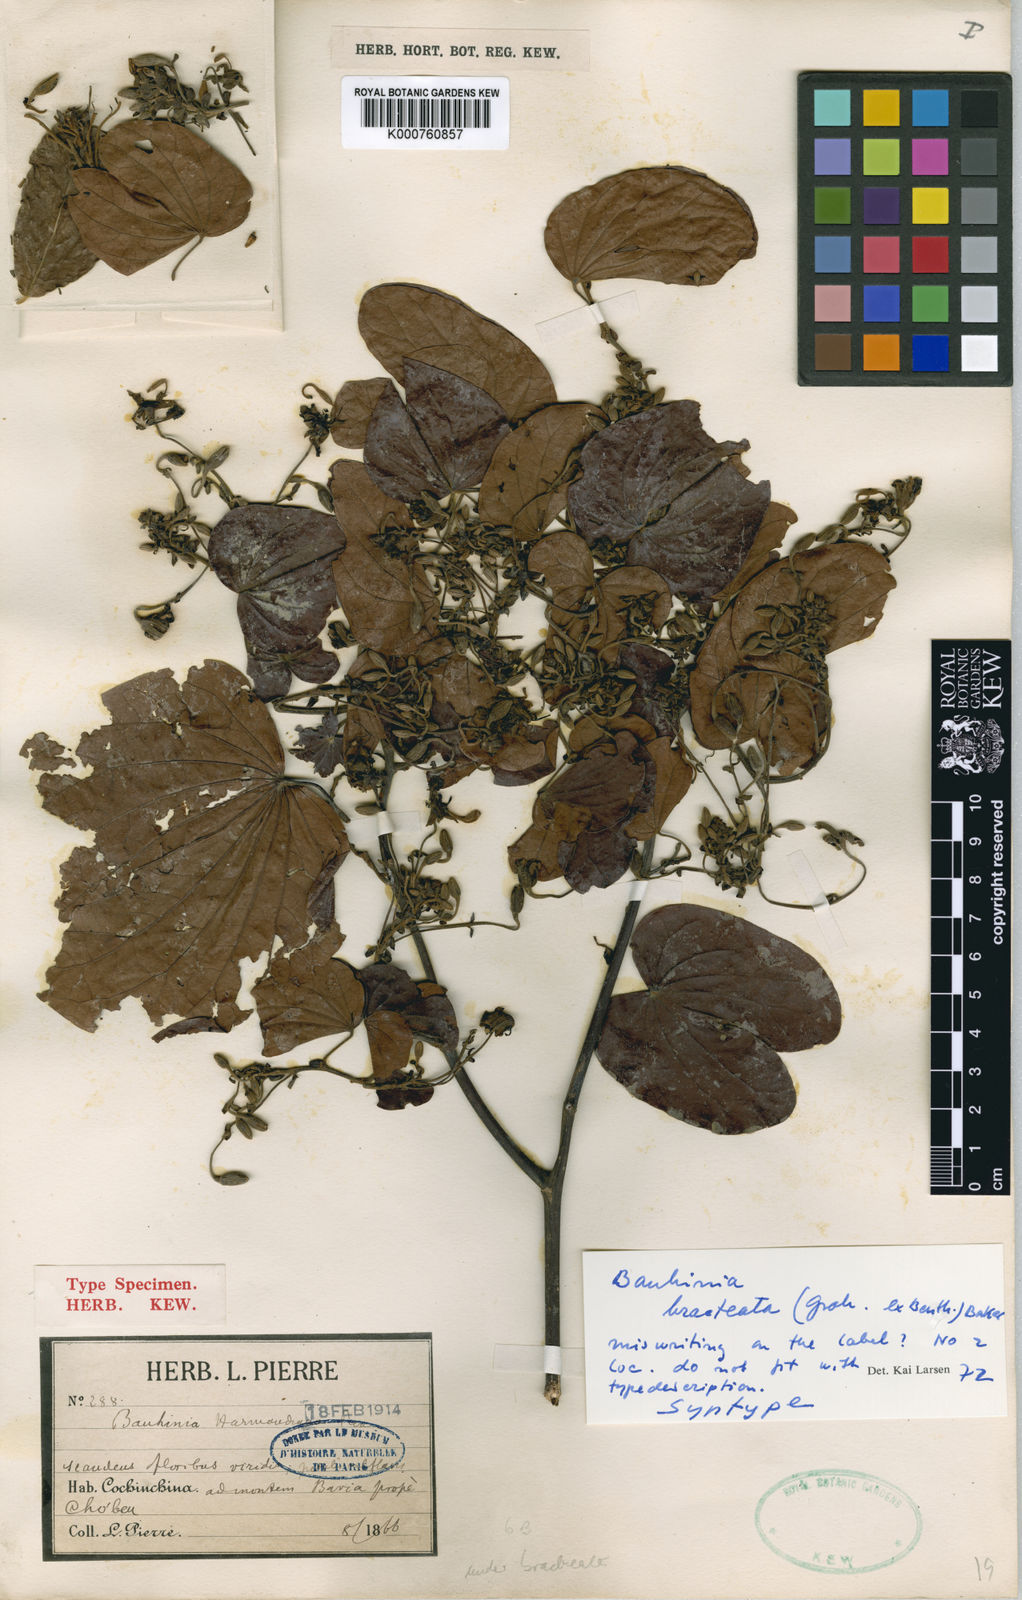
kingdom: Plantae
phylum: Tracheophyta
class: Magnoliopsida
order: Fabales
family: Fabaceae
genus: Phanera
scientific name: Phanera bracteata
